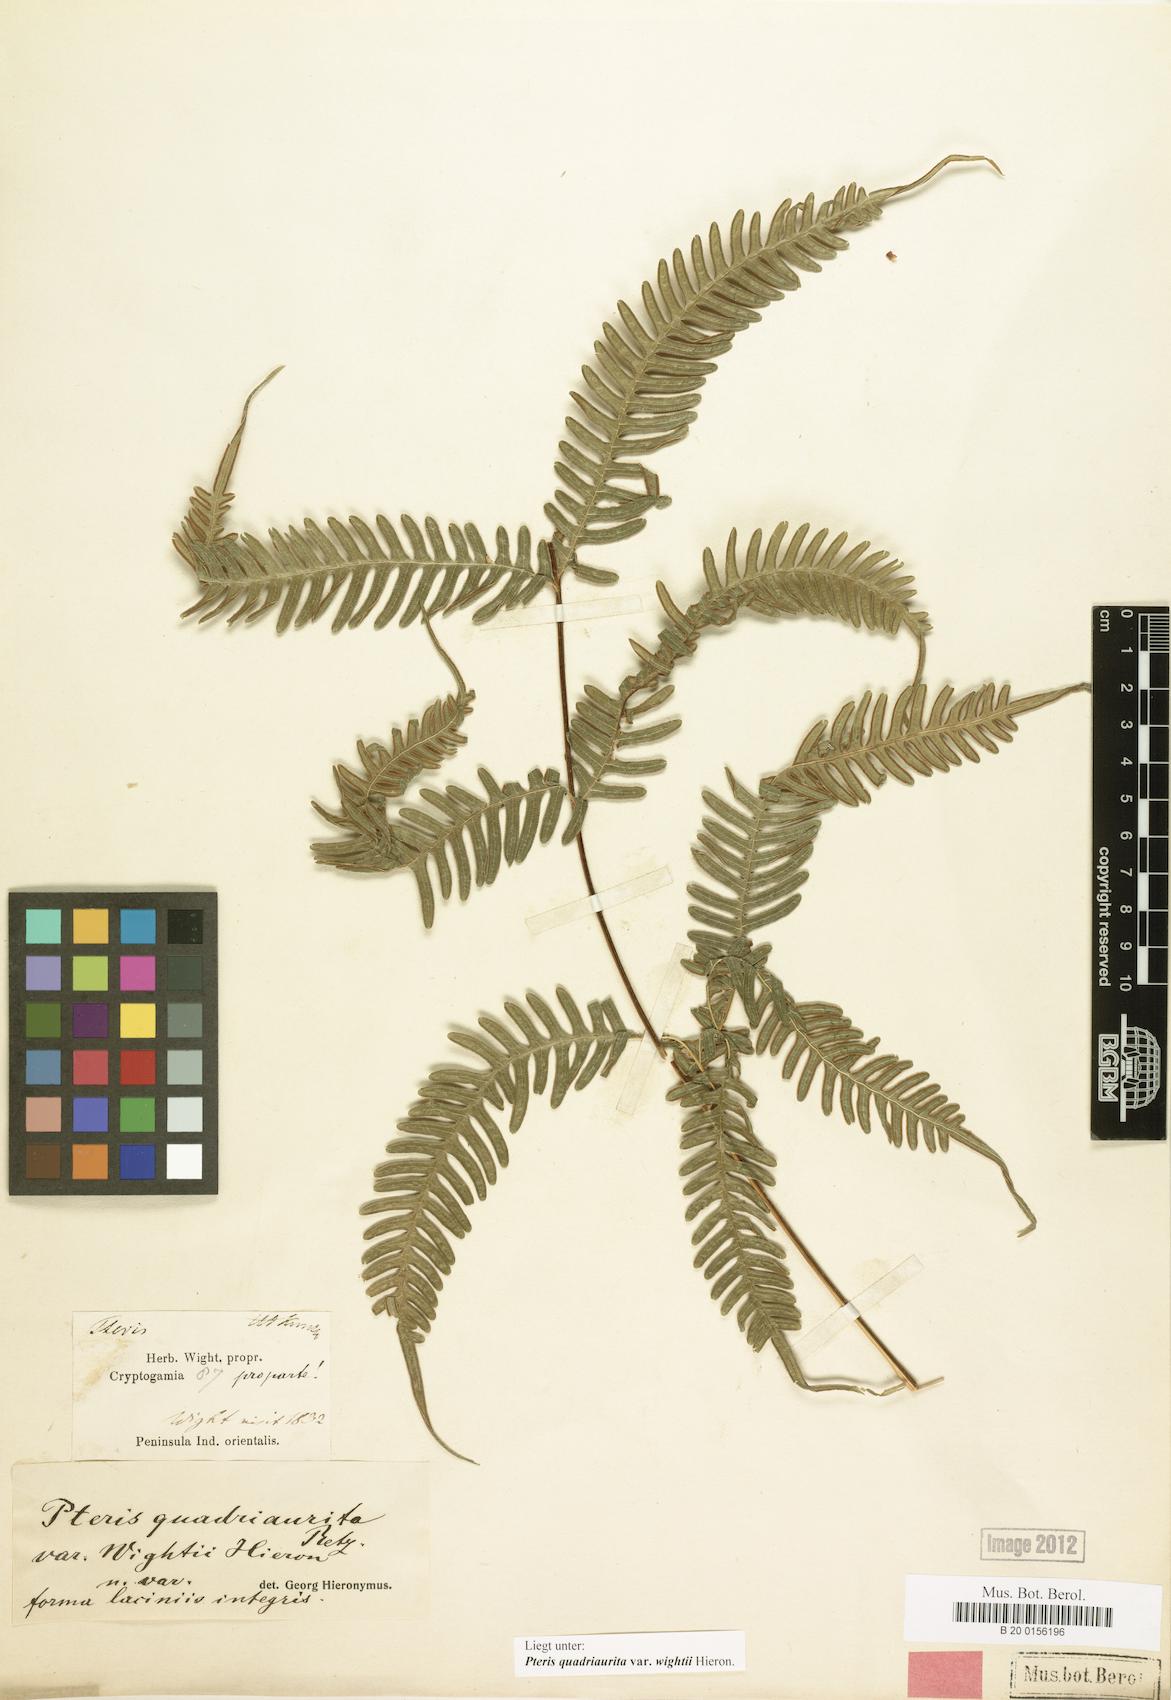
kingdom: Plantae
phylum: Tracheophyta
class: Polypodiopsida
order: Polypodiales
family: Pteridaceae
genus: Pteris
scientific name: Pteris quadriaurita
